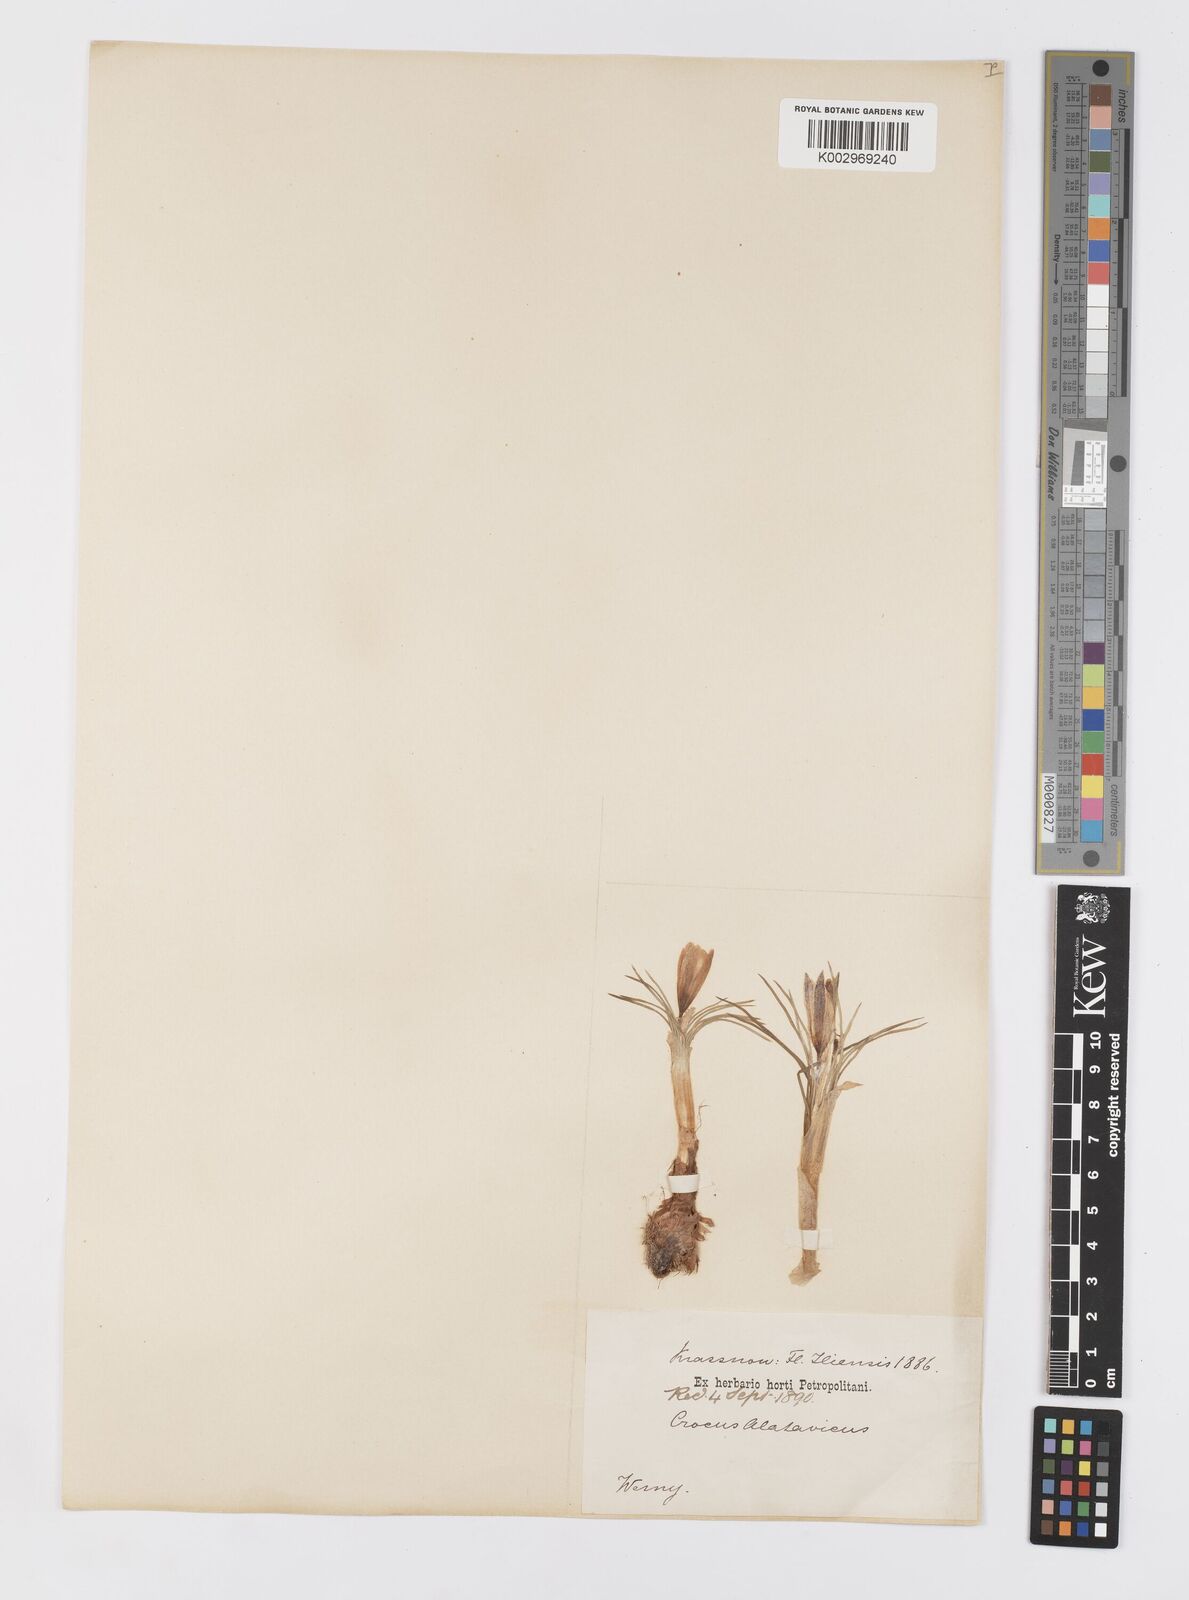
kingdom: Plantae
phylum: Tracheophyta
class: Liliopsida
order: Asparagales
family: Iridaceae
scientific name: Iridaceae
